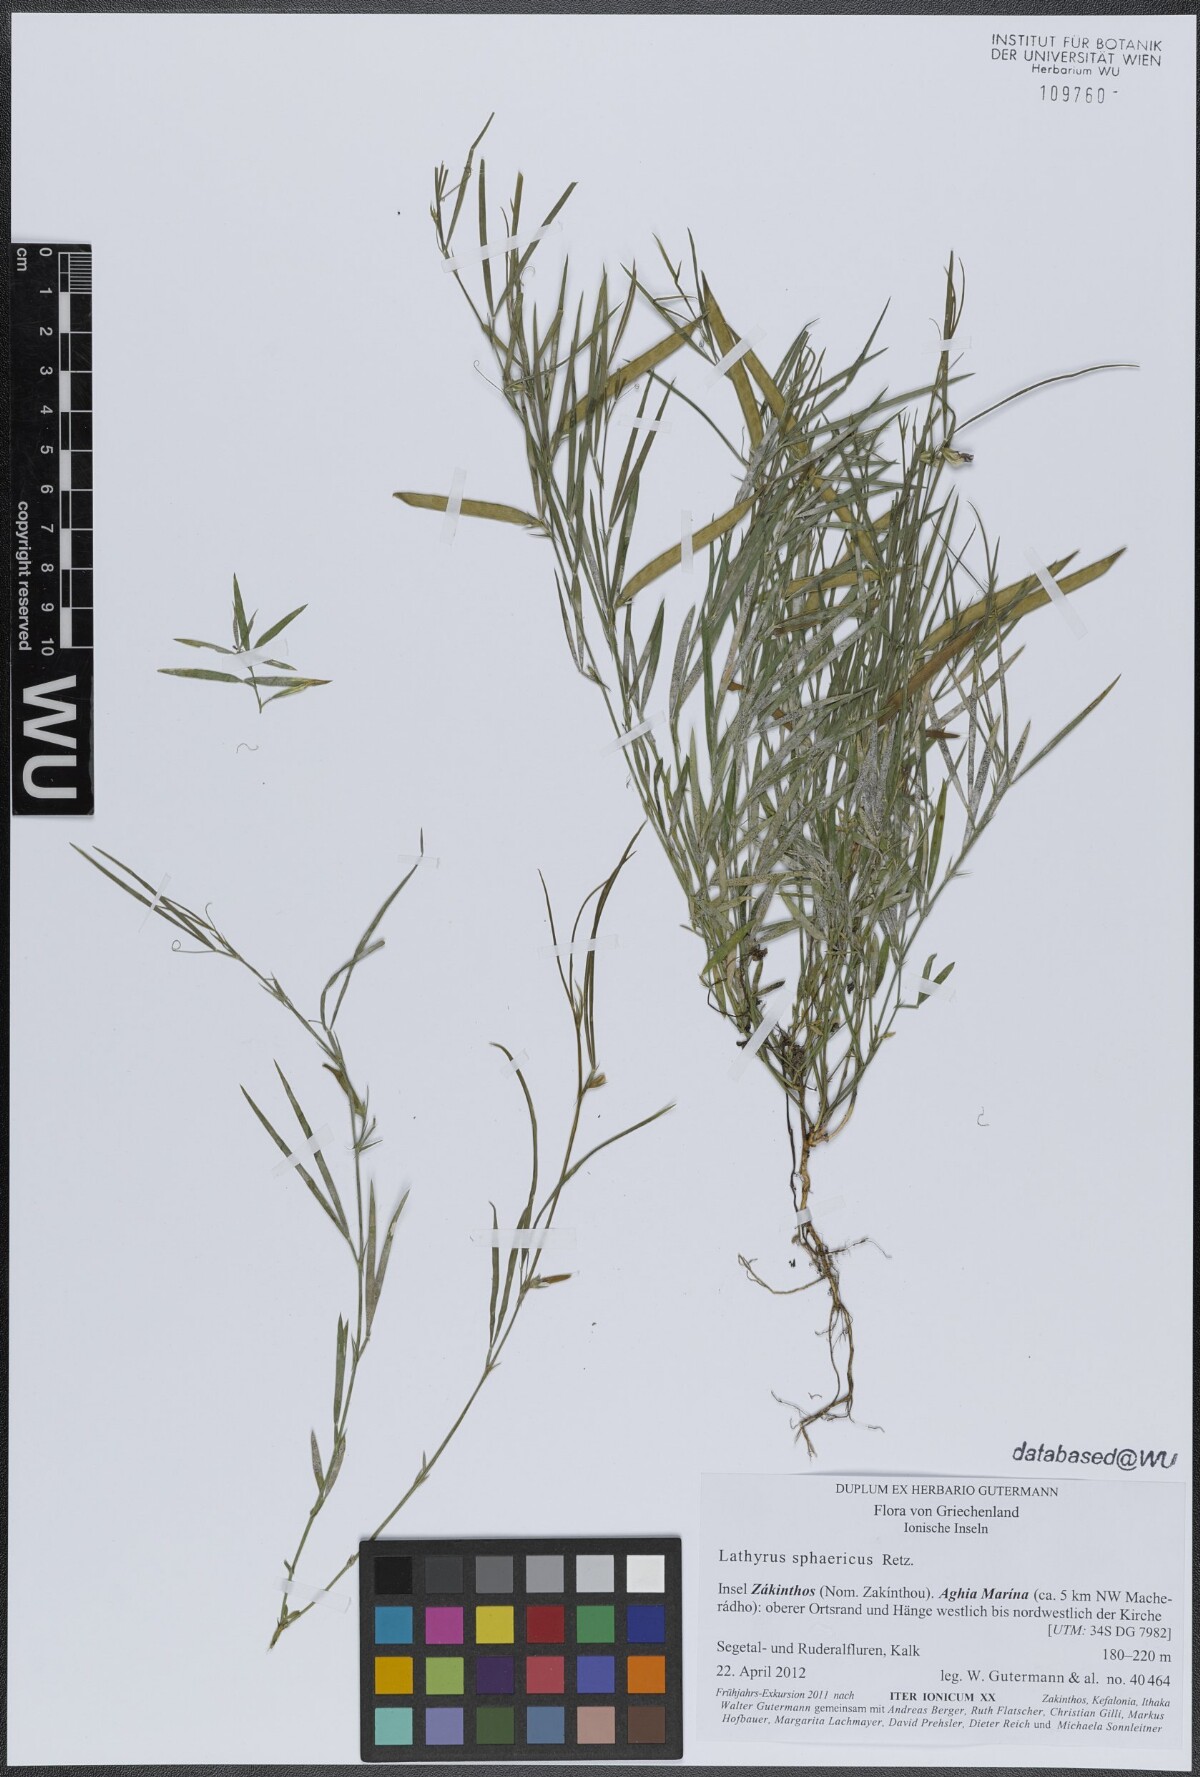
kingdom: Plantae
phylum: Tracheophyta
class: Magnoliopsida
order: Fabales
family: Fabaceae
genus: Lathyrus
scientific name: Lathyrus sphaericus
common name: Grass pea
